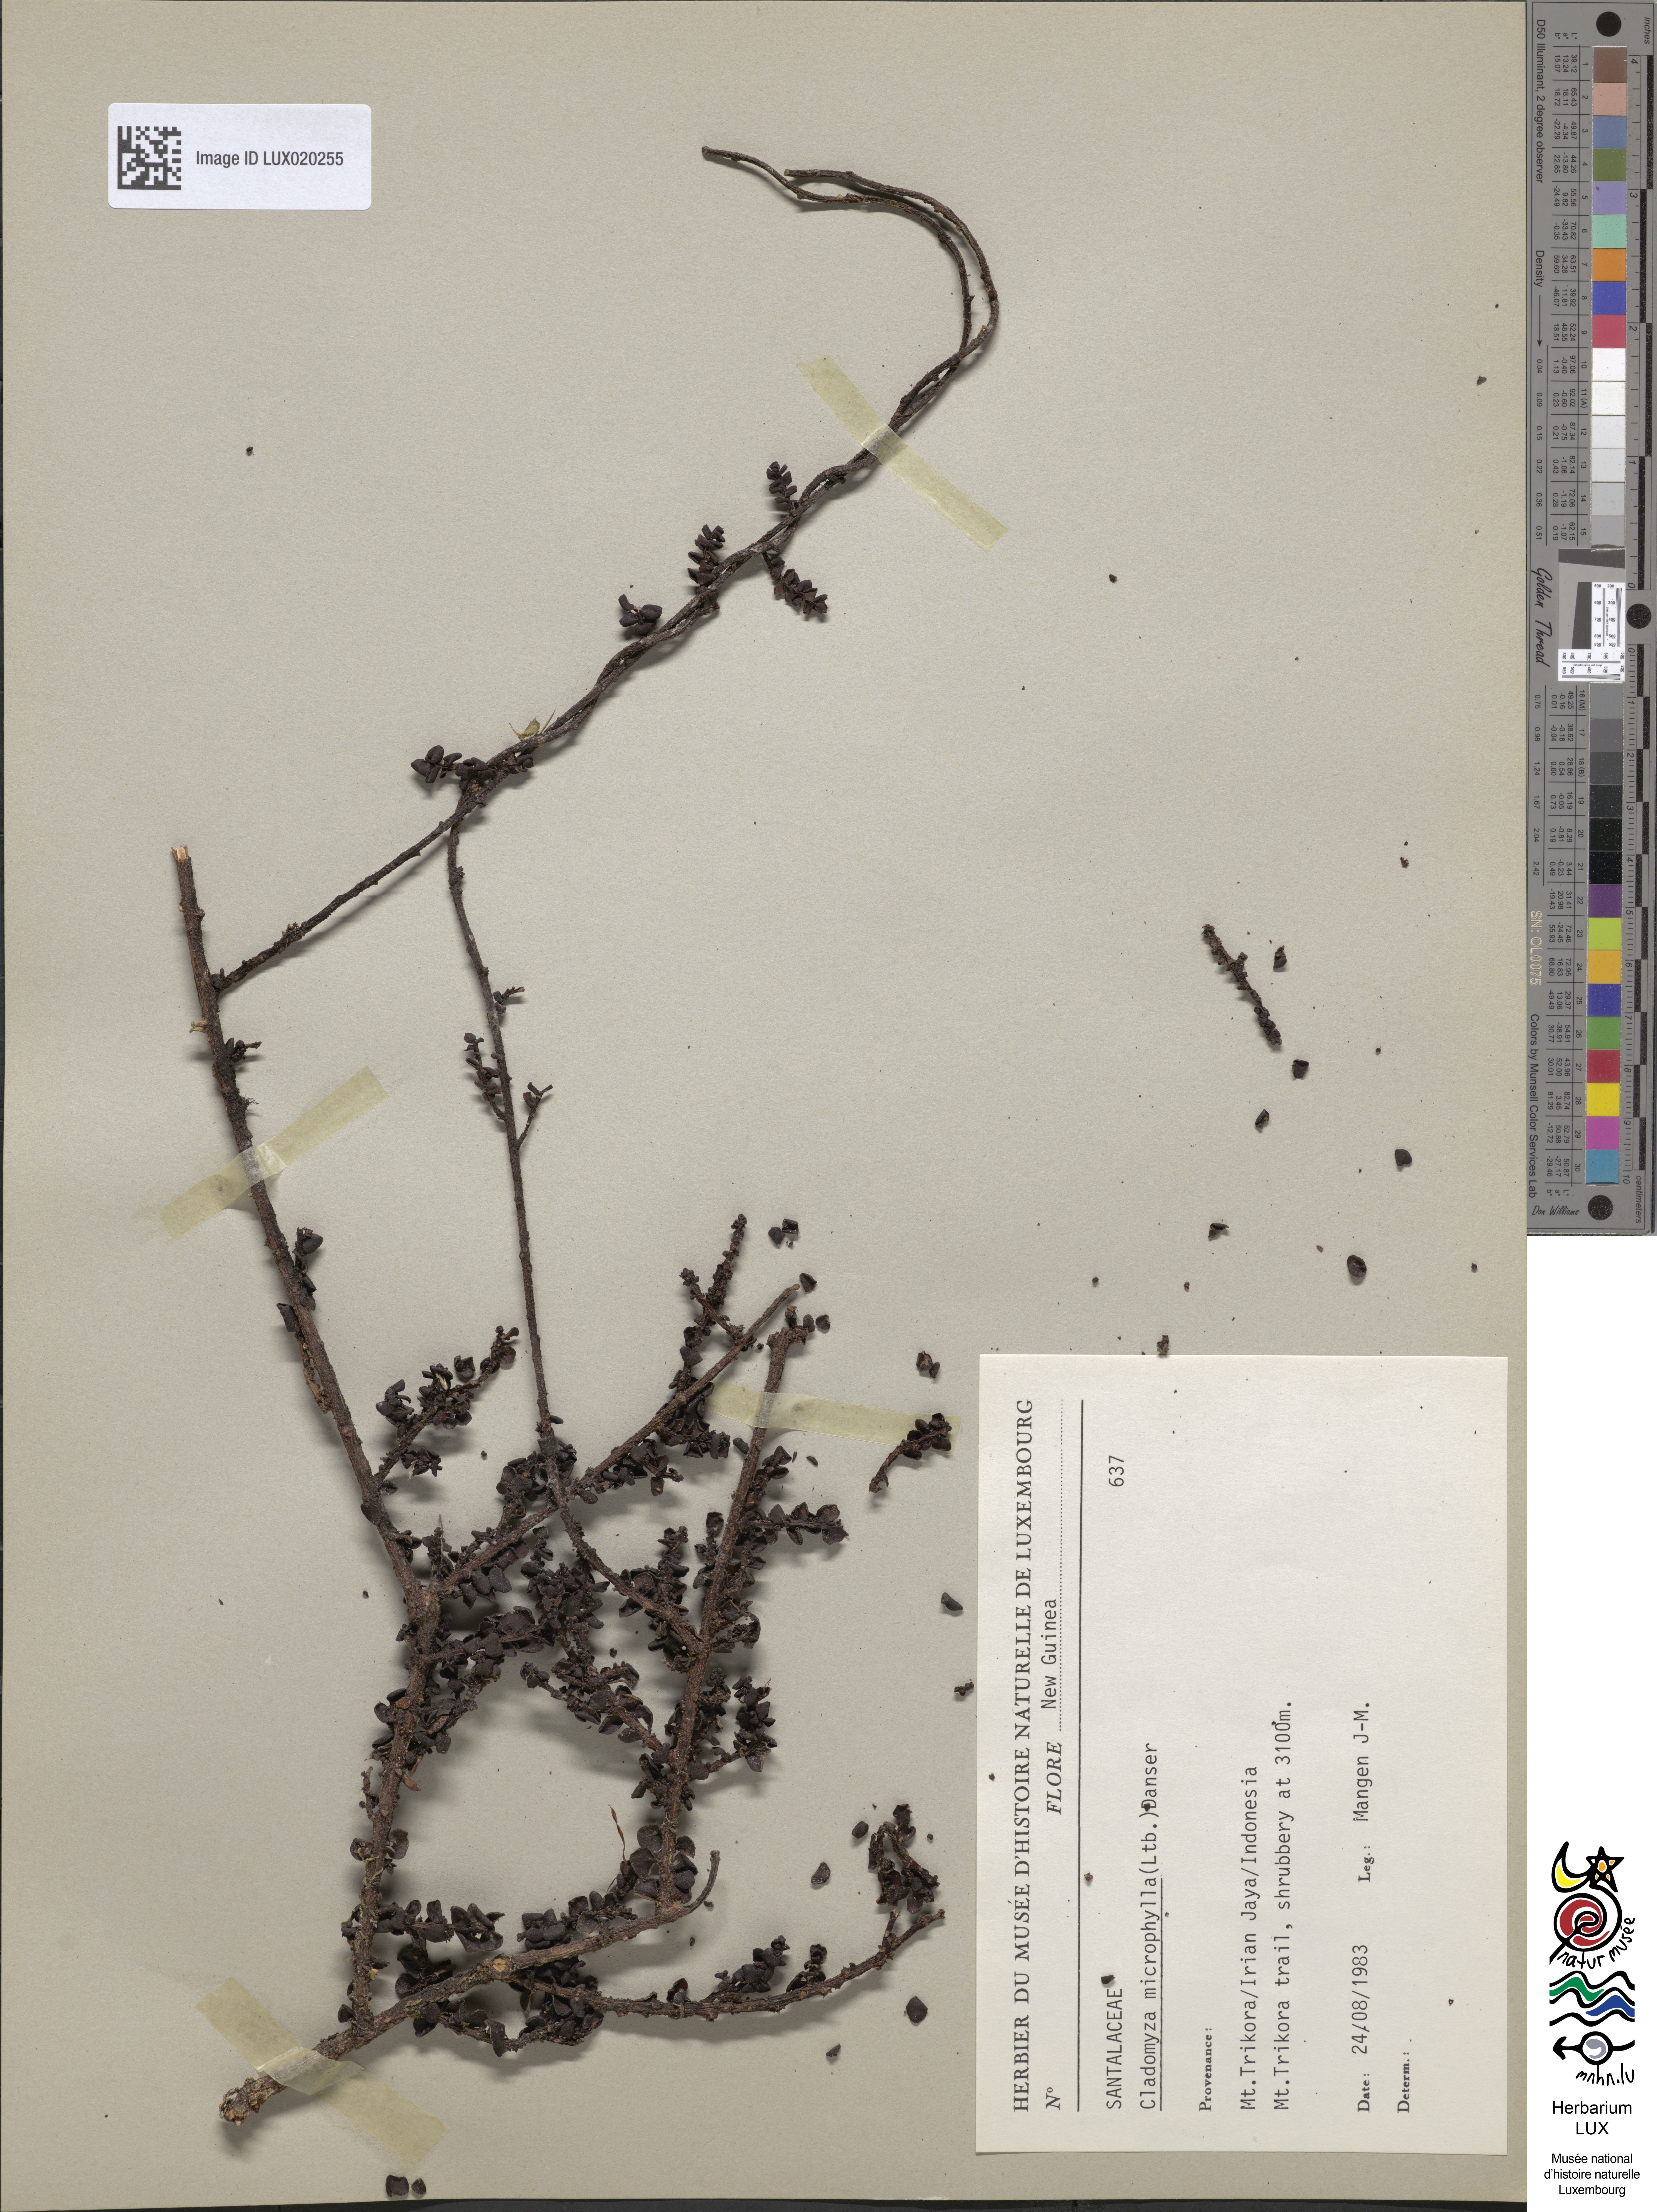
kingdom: Plantae
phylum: Tracheophyta
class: Magnoliopsida
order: Santalales
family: Amphorogynaceae
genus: Cladomyza
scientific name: Cladomyza microphylla
